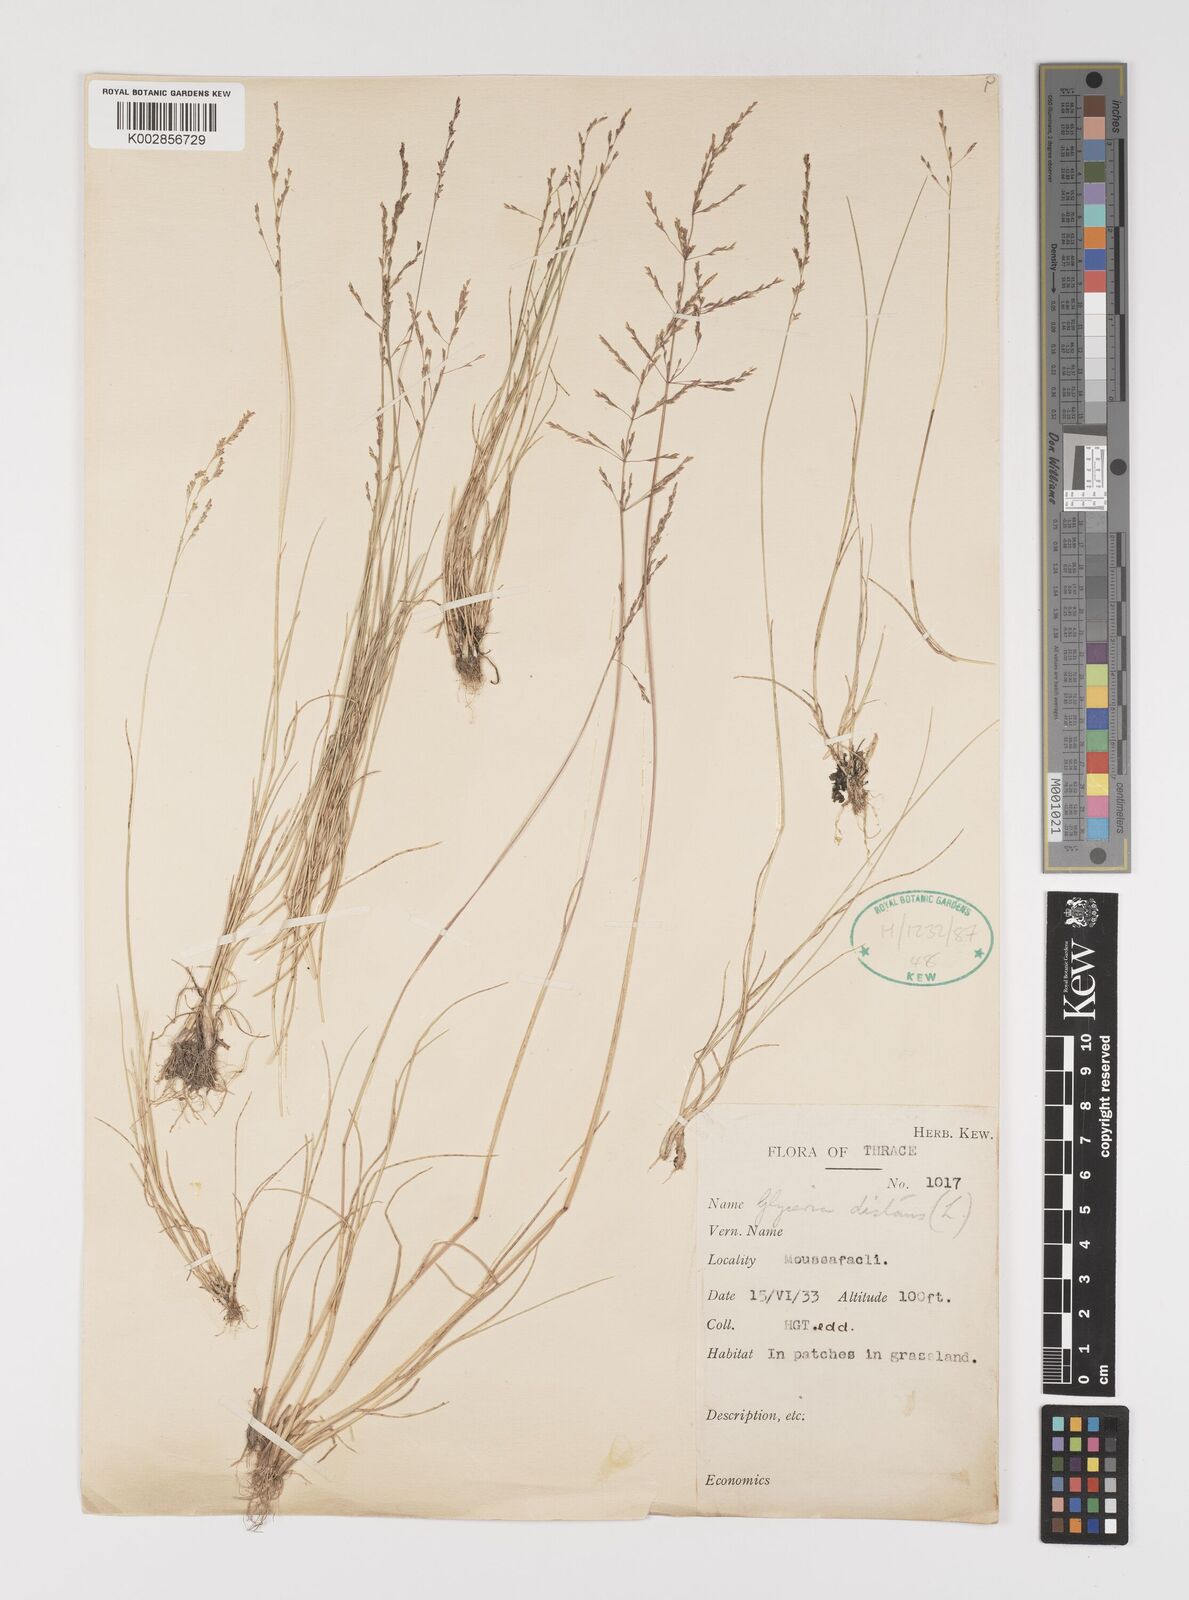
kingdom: Plantae
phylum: Tracheophyta
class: Liliopsida
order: Poales
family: Poaceae
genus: Puccinellia
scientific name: Puccinellia distans
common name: Weeping alkaligrass
